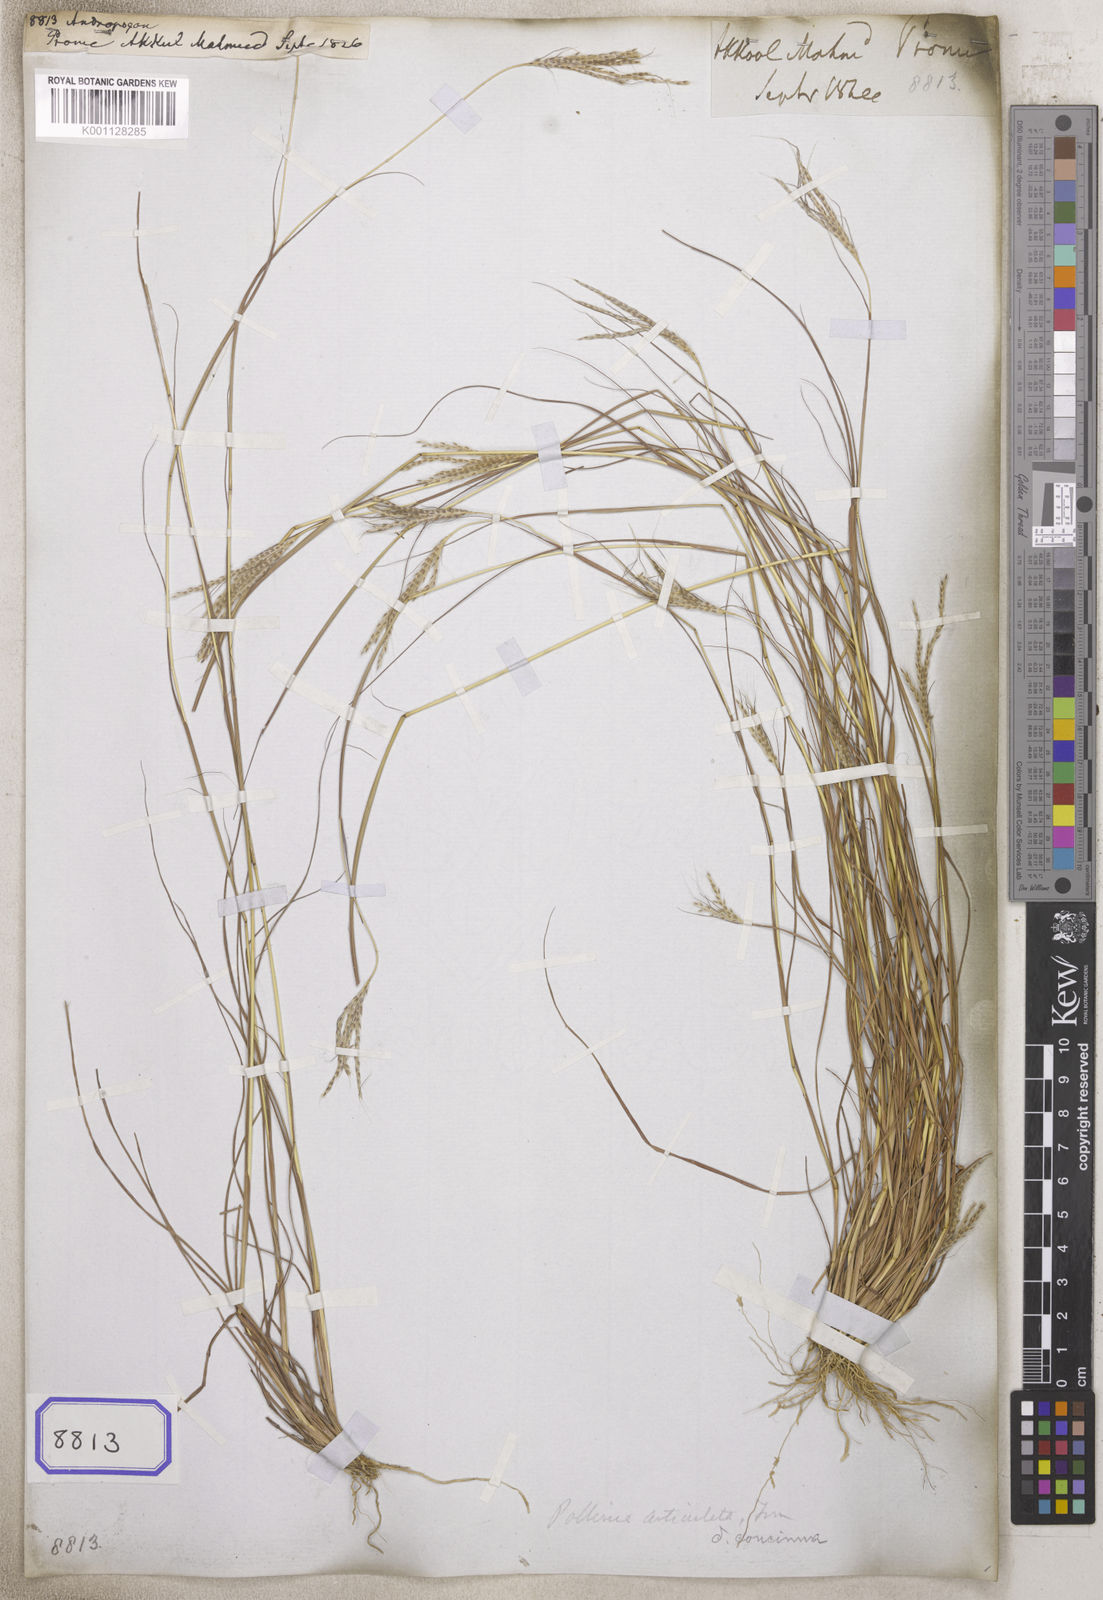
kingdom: Plantae
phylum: Tracheophyta
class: Liliopsida
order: Poales
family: Poaceae
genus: Andropogon
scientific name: Andropogon
